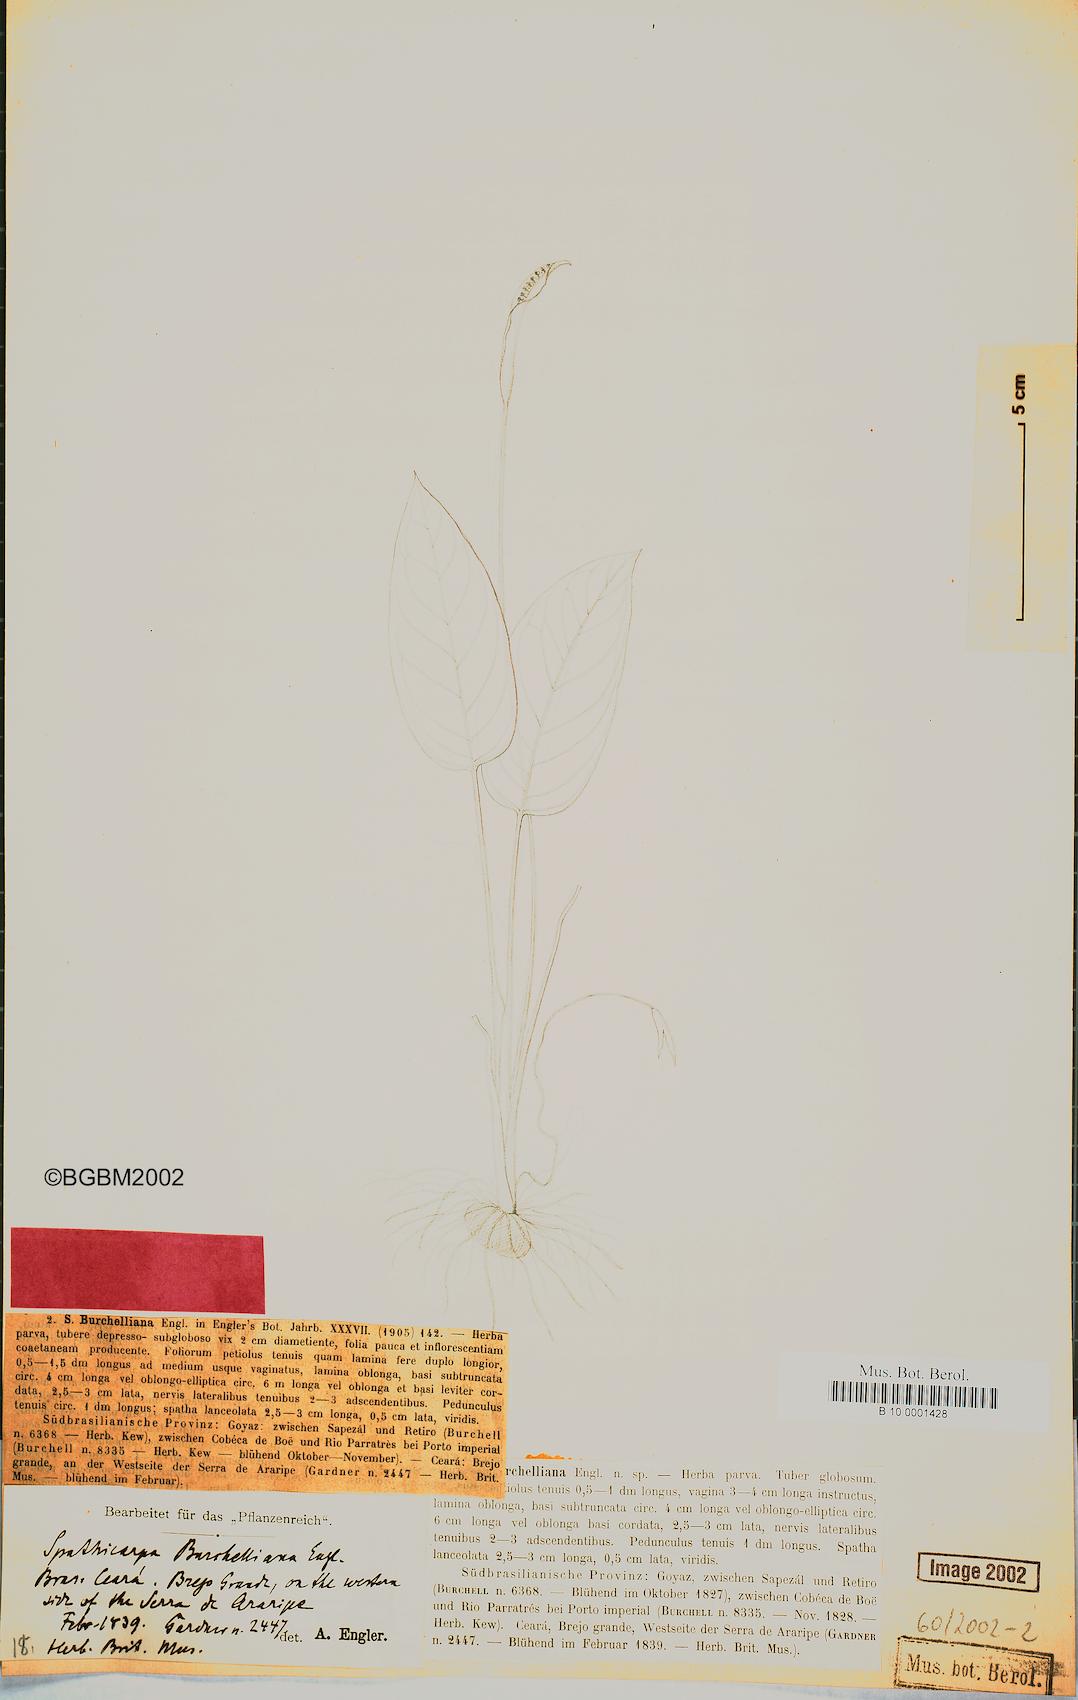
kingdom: Plantae
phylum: Tracheophyta
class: Liliopsida
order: Alismatales
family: Araceae
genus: Spathicarpa
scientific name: Spathicarpa gardneri
